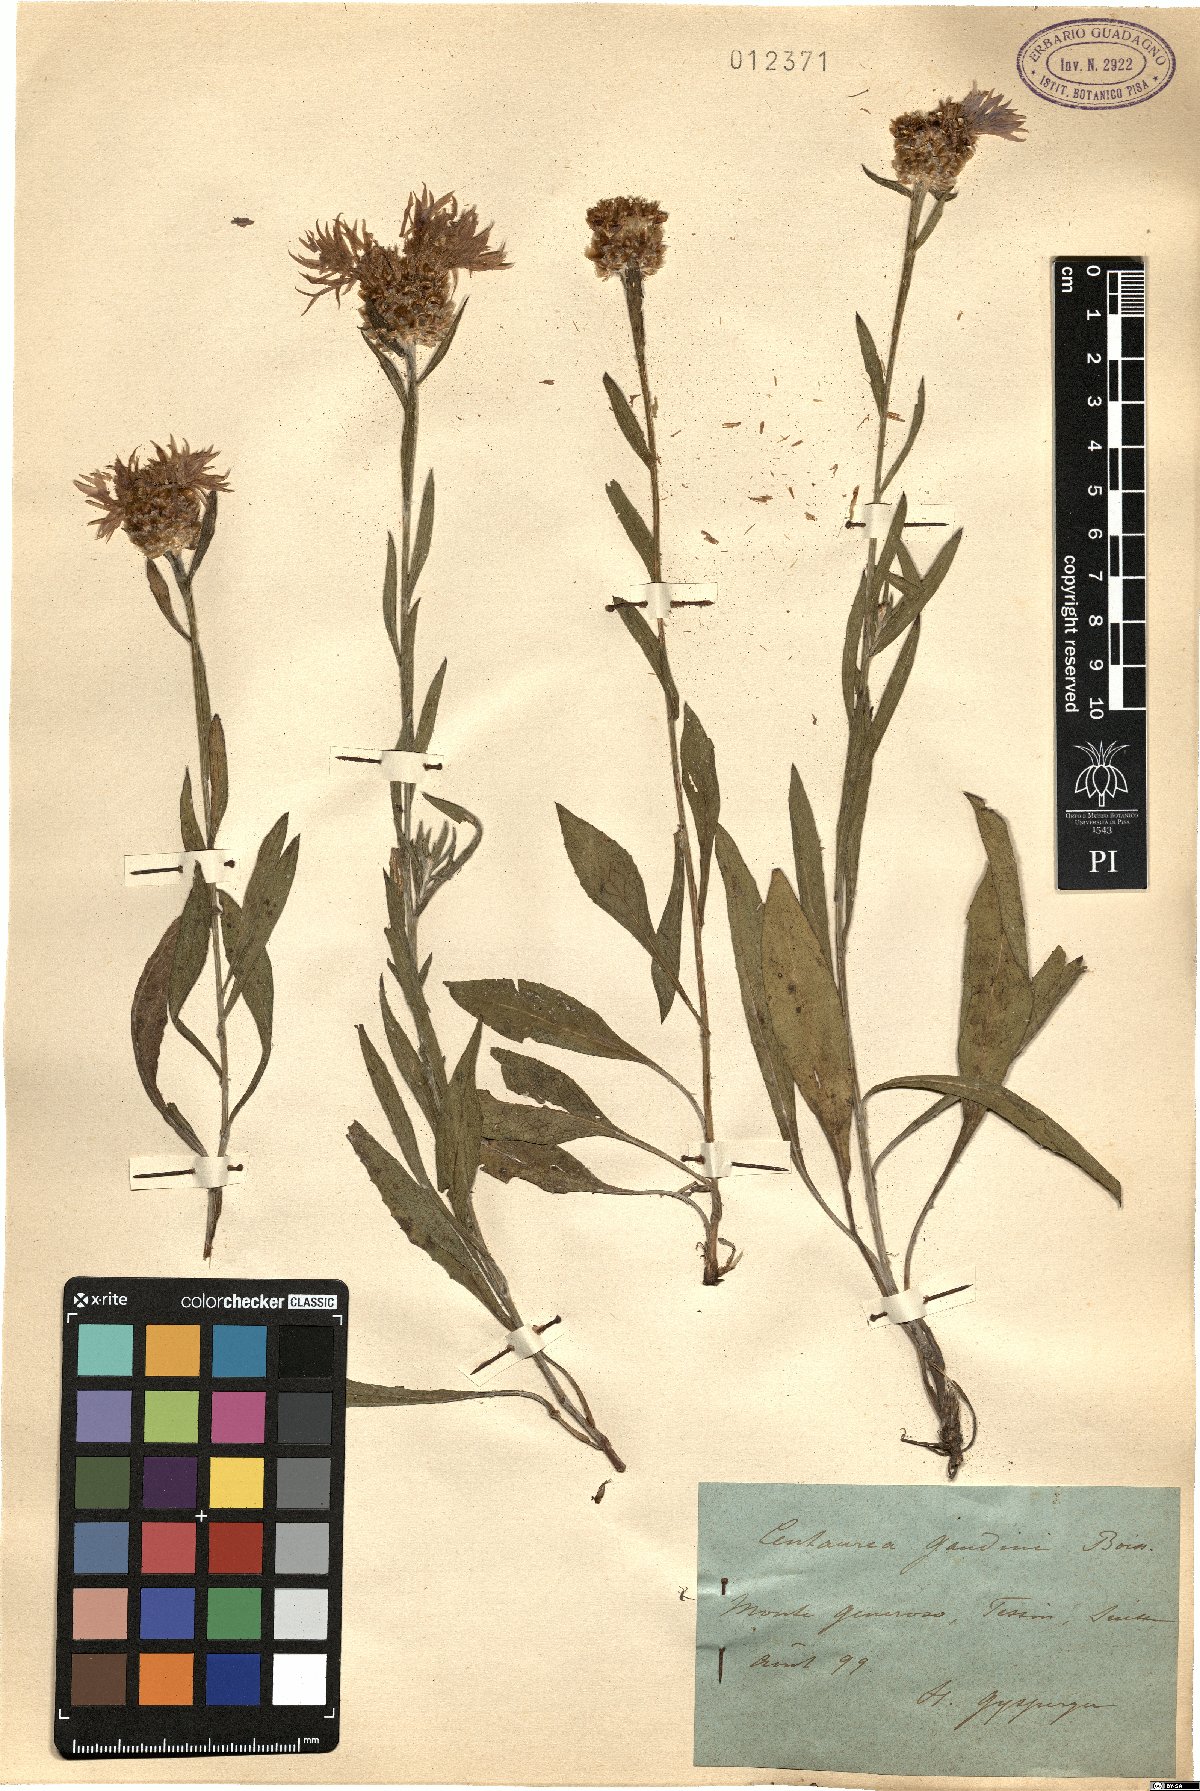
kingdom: Plantae
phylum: Tracheophyta
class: Magnoliopsida
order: Asterales
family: Asteraceae
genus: Centaurea
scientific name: Centaurea jacea
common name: Brown knapweed
